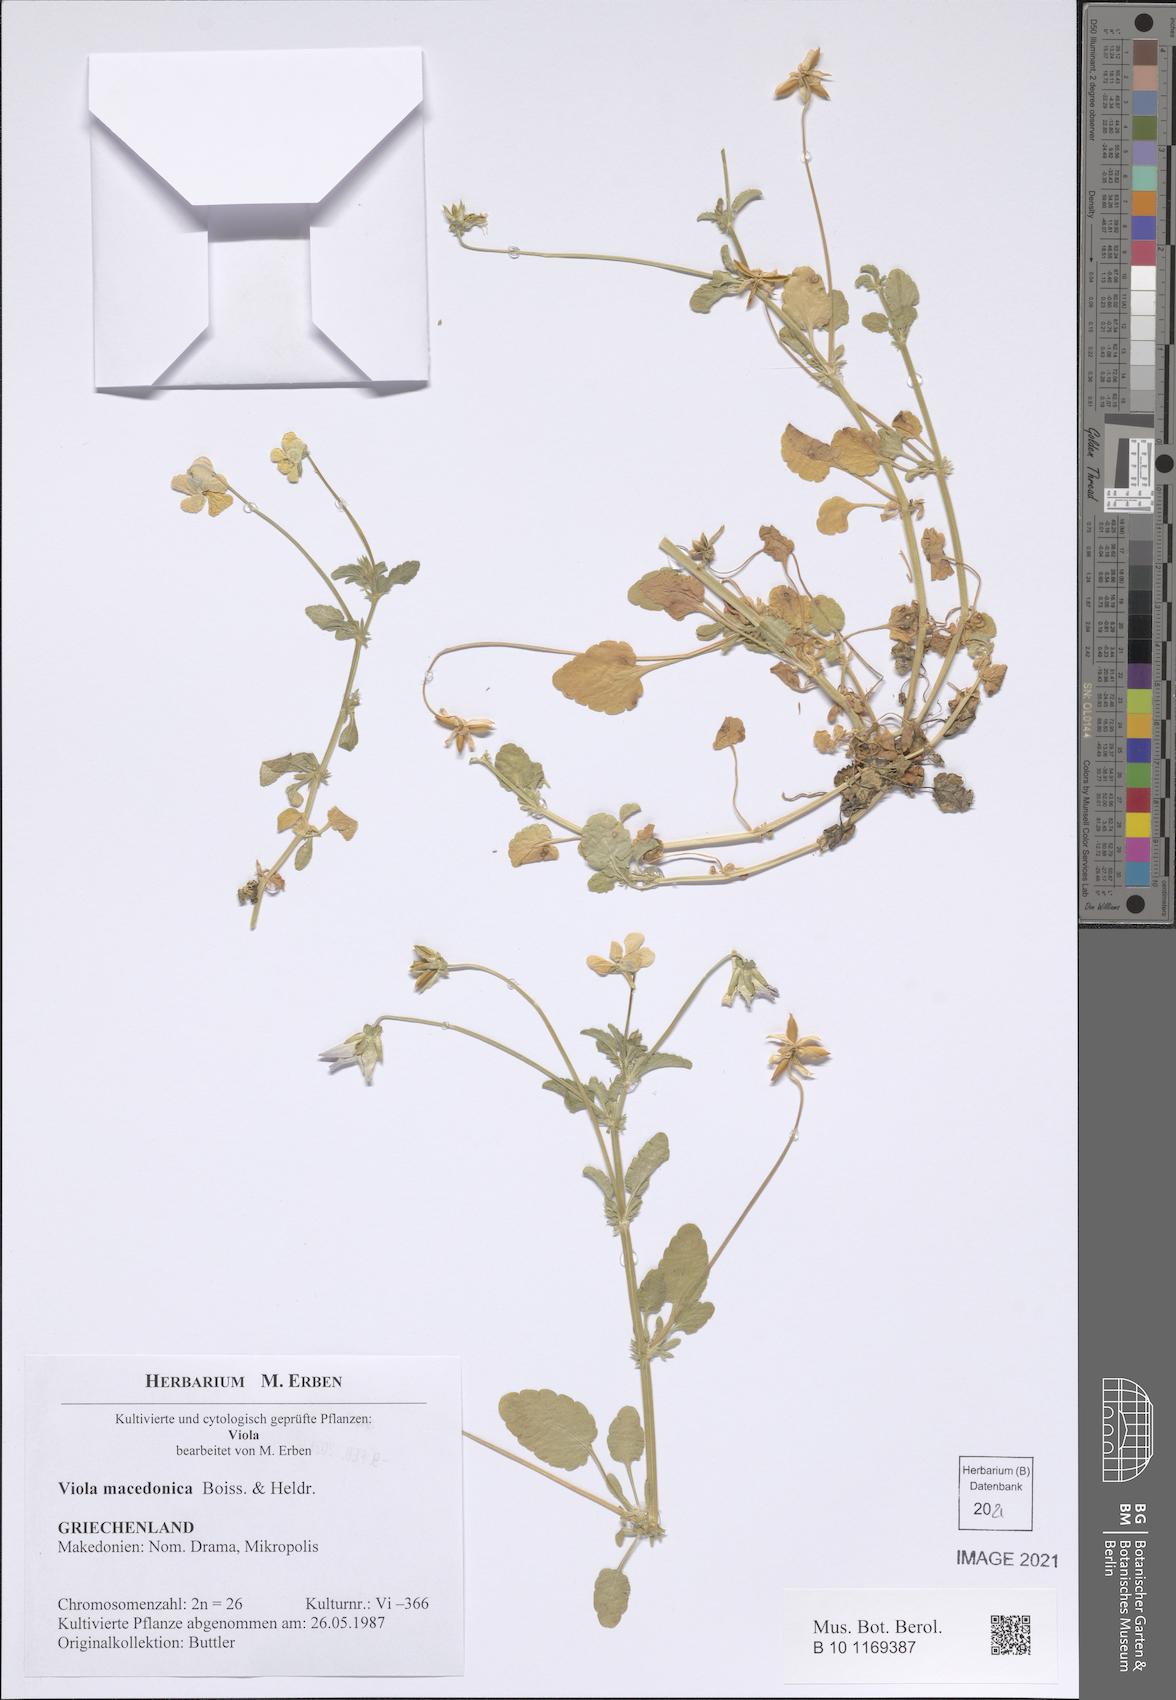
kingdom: Plantae
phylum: Tracheophyta
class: Magnoliopsida
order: Malpighiales
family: Violaceae
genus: Viola
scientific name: Viola tricolor
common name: Pansy
